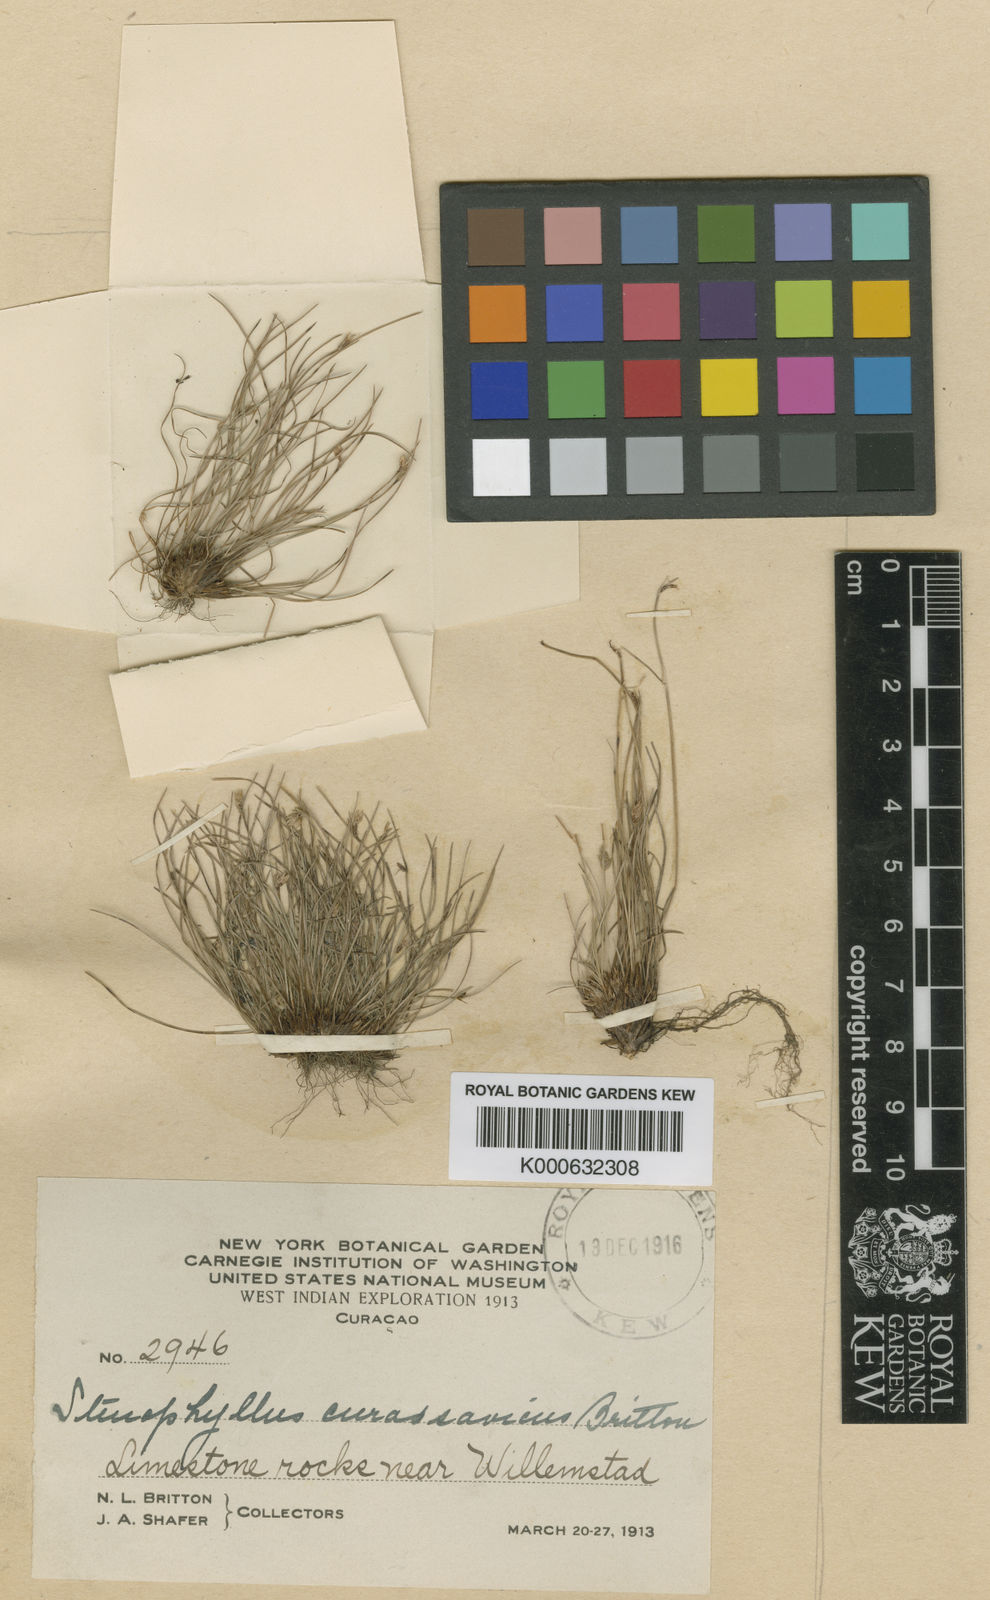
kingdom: Plantae
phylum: Tracheophyta
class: Liliopsida
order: Poales
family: Cyperaceae
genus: Bulbostylis
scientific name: Bulbostylis
